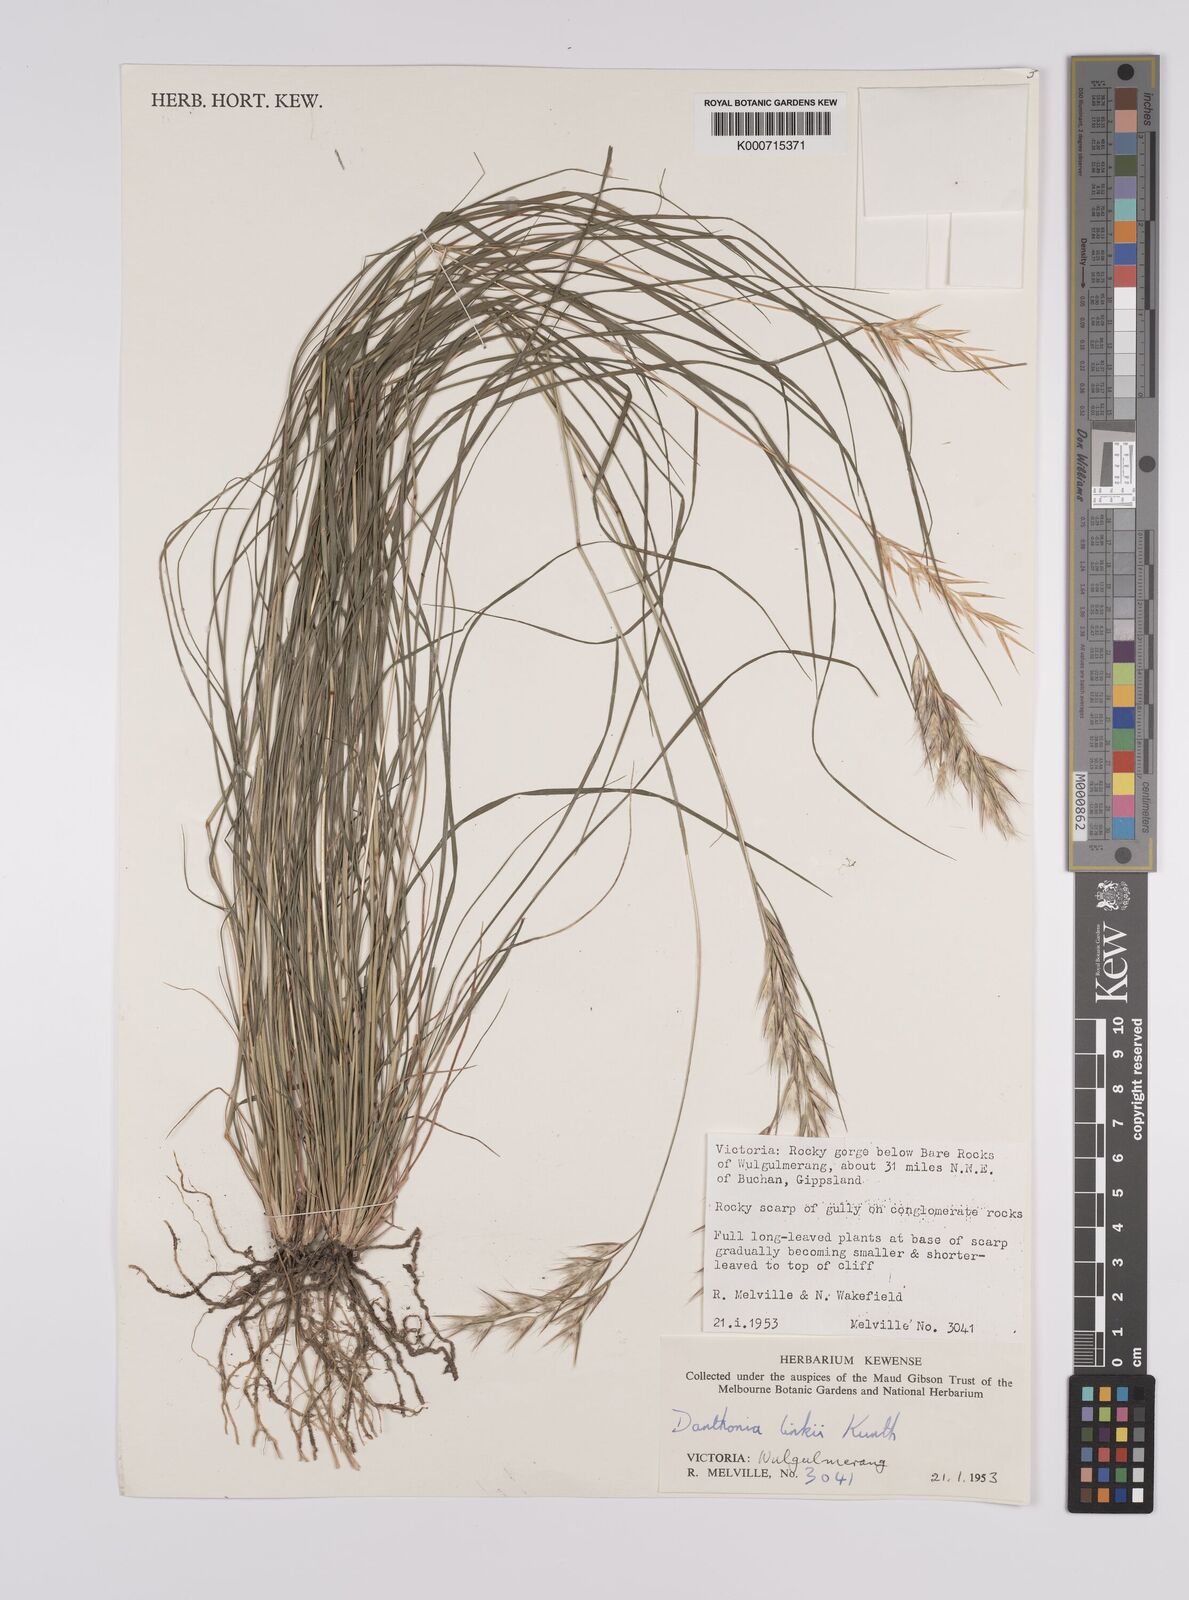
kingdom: Plantae
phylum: Tracheophyta
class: Liliopsida
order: Poales
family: Poaceae
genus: Rytidosperma
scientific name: Rytidosperma bipartitum
